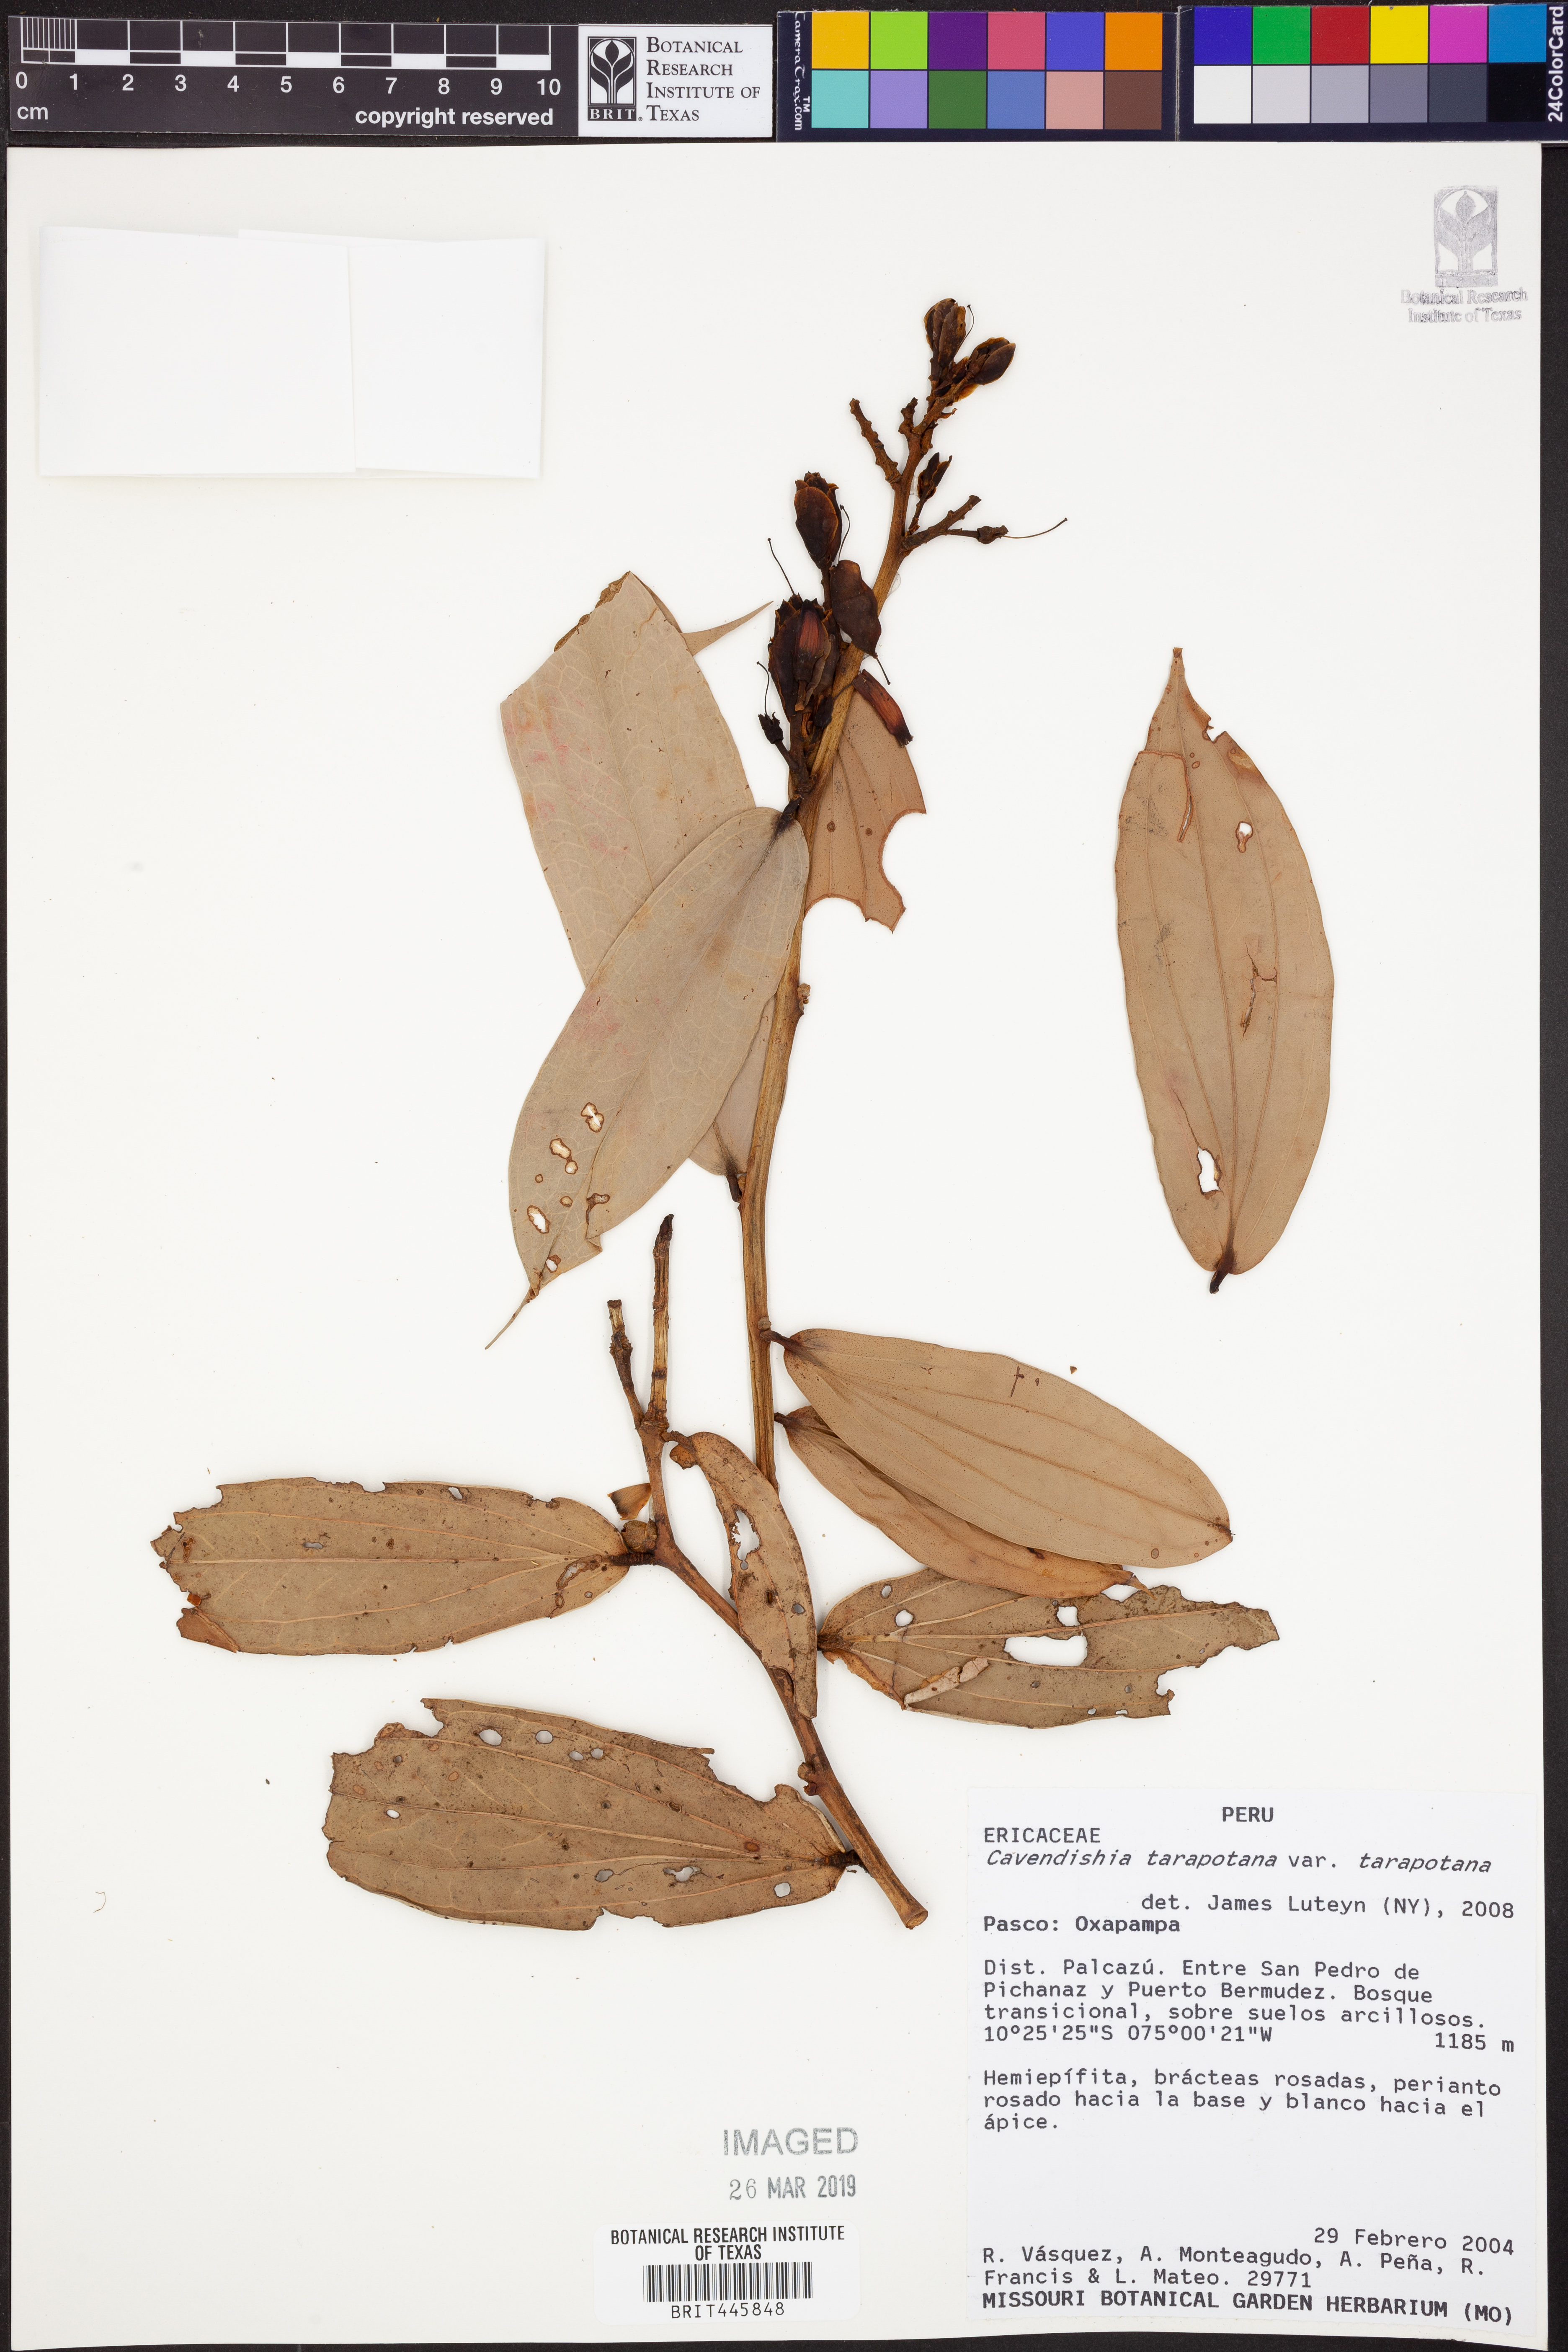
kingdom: Plantae
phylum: Tracheophyta
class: Magnoliopsida
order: Ericales
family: Ericaceae
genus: Cavendishia
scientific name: Cavendishia tarapotana
